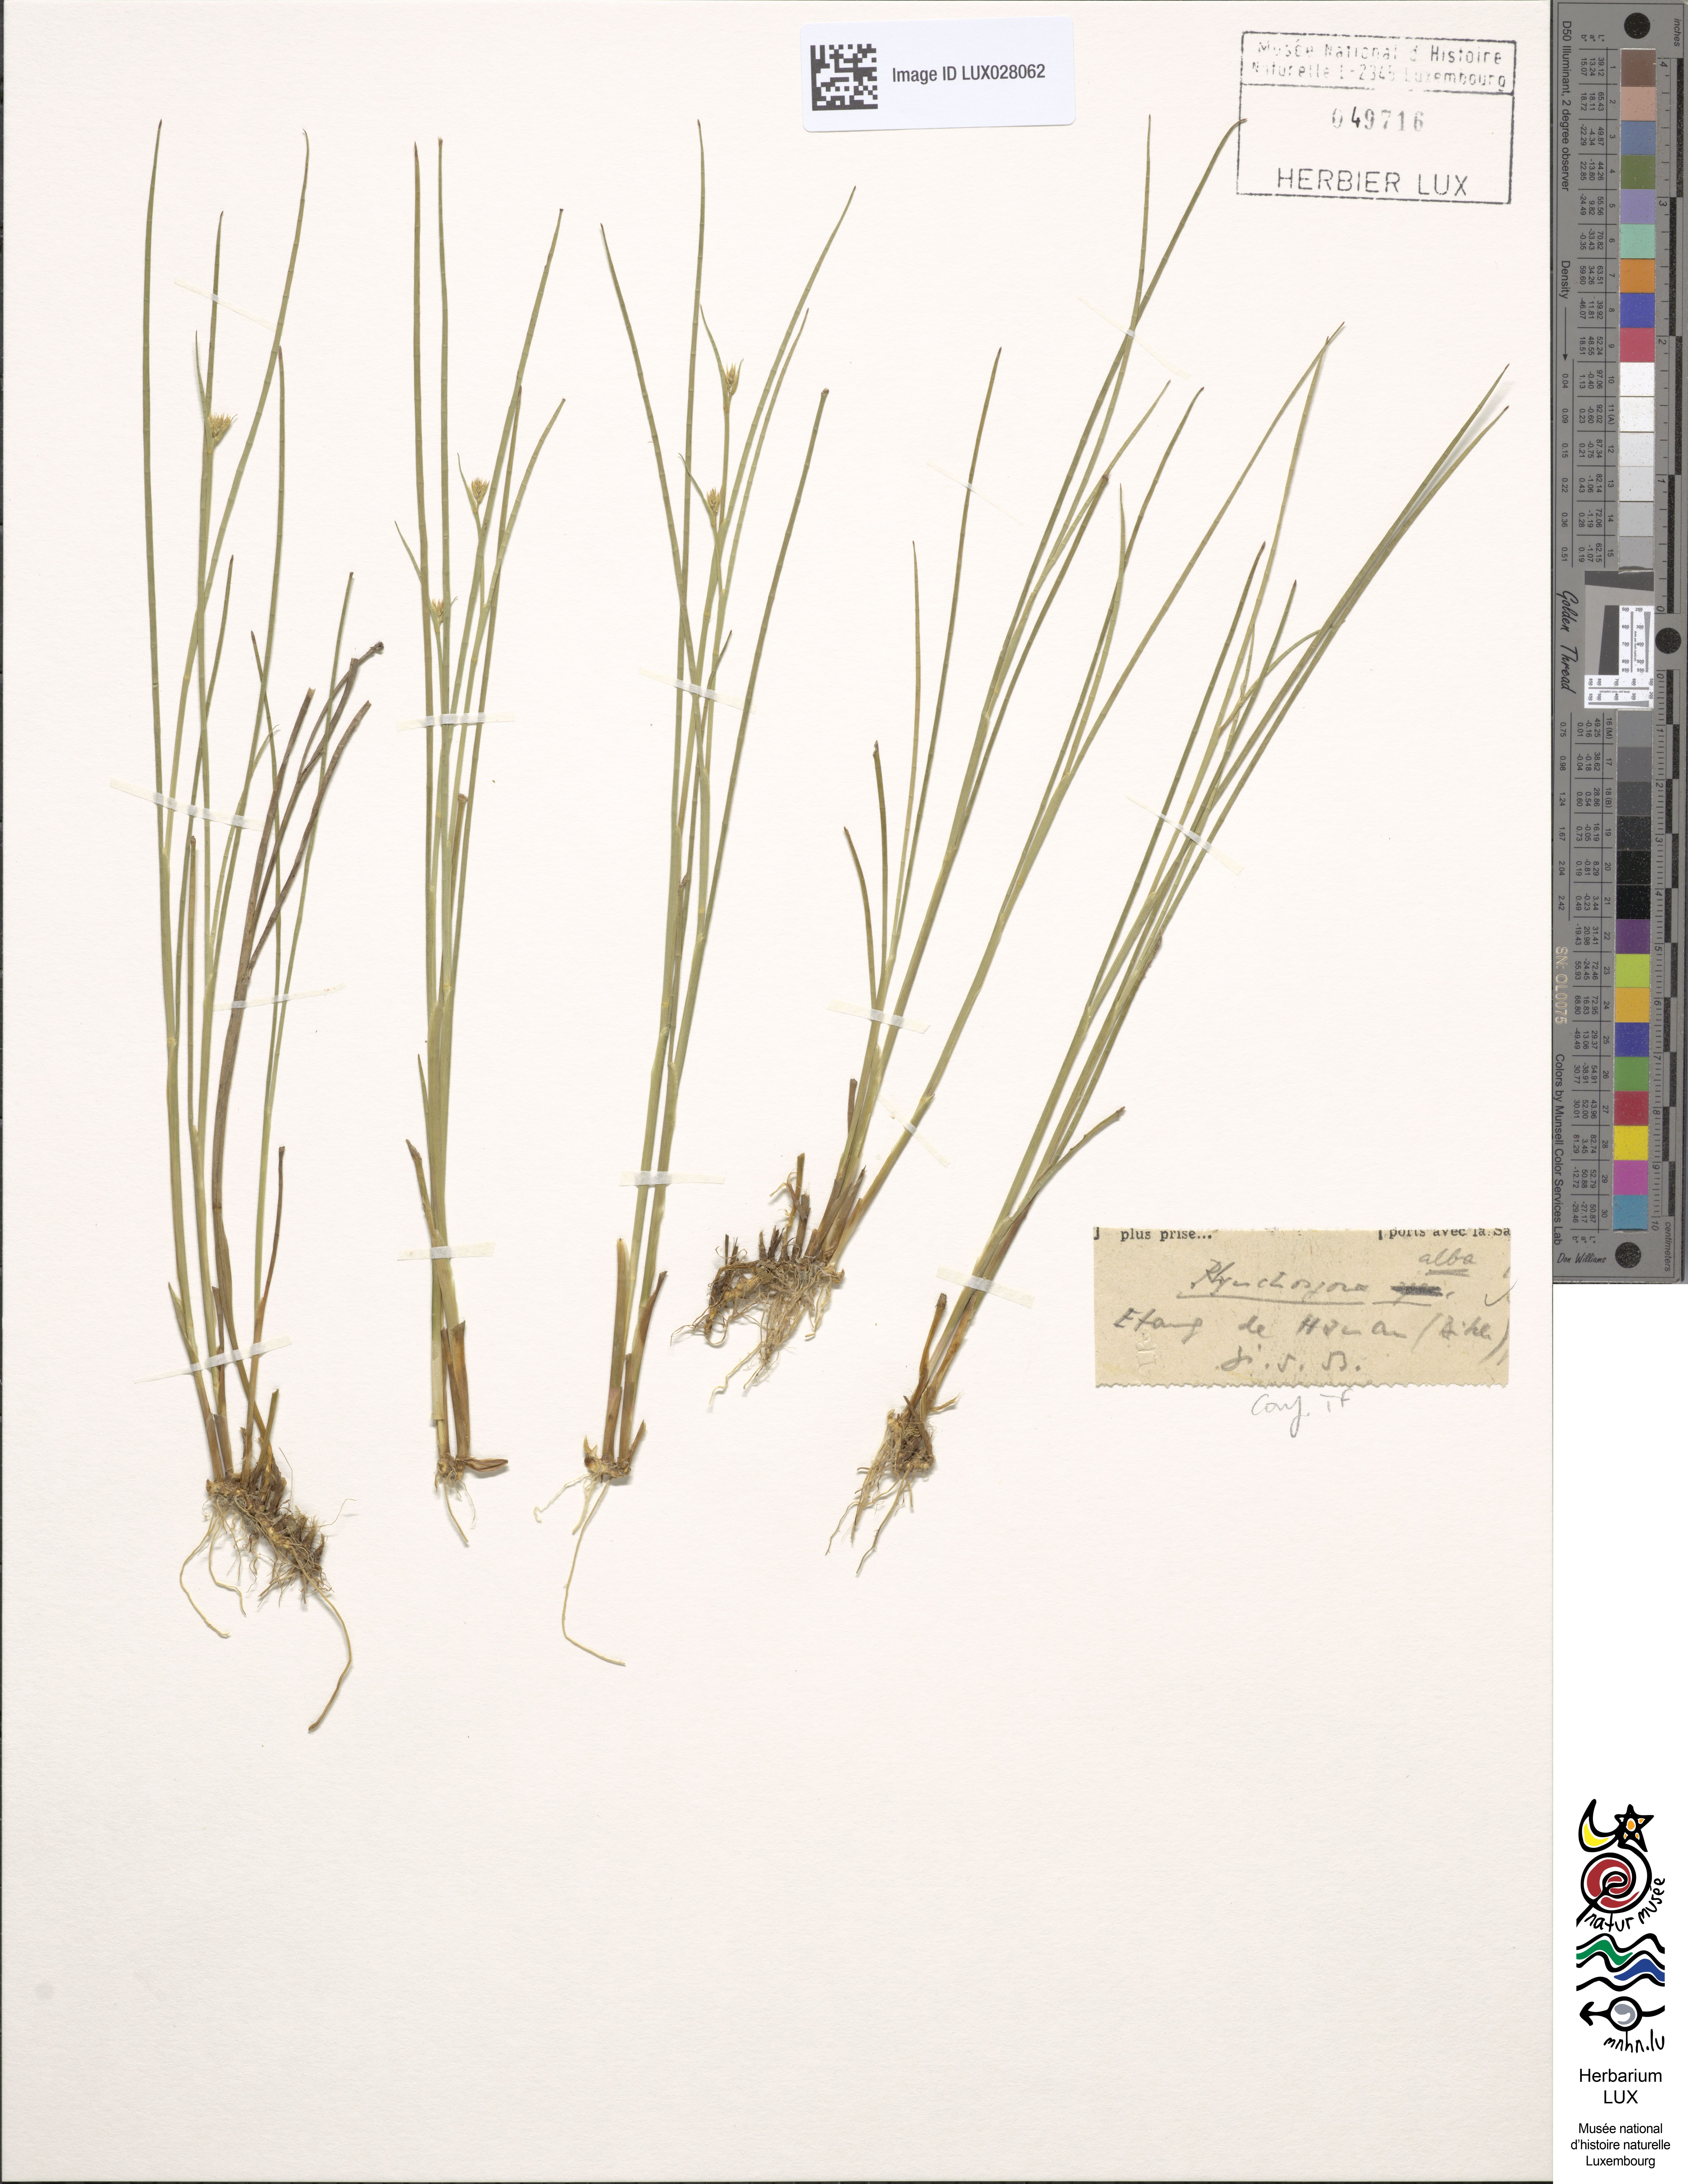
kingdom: Plantae
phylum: Tracheophyta
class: Liliopsida
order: Poales
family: Cyperaceae
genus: Rhynchospora
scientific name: Rhynchospora alba
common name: White beak-sedge
